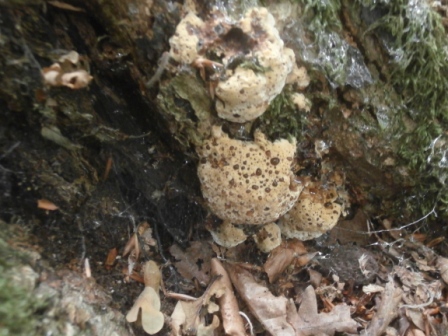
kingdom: Fungi
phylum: Basidiomycota
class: Agaricomycetes
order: Hymenochaetales
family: Hymenochaetaceae
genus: Pseudoinonotus
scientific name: Pseudoinonotus dryadeus
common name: ege-spejlporesvamp
